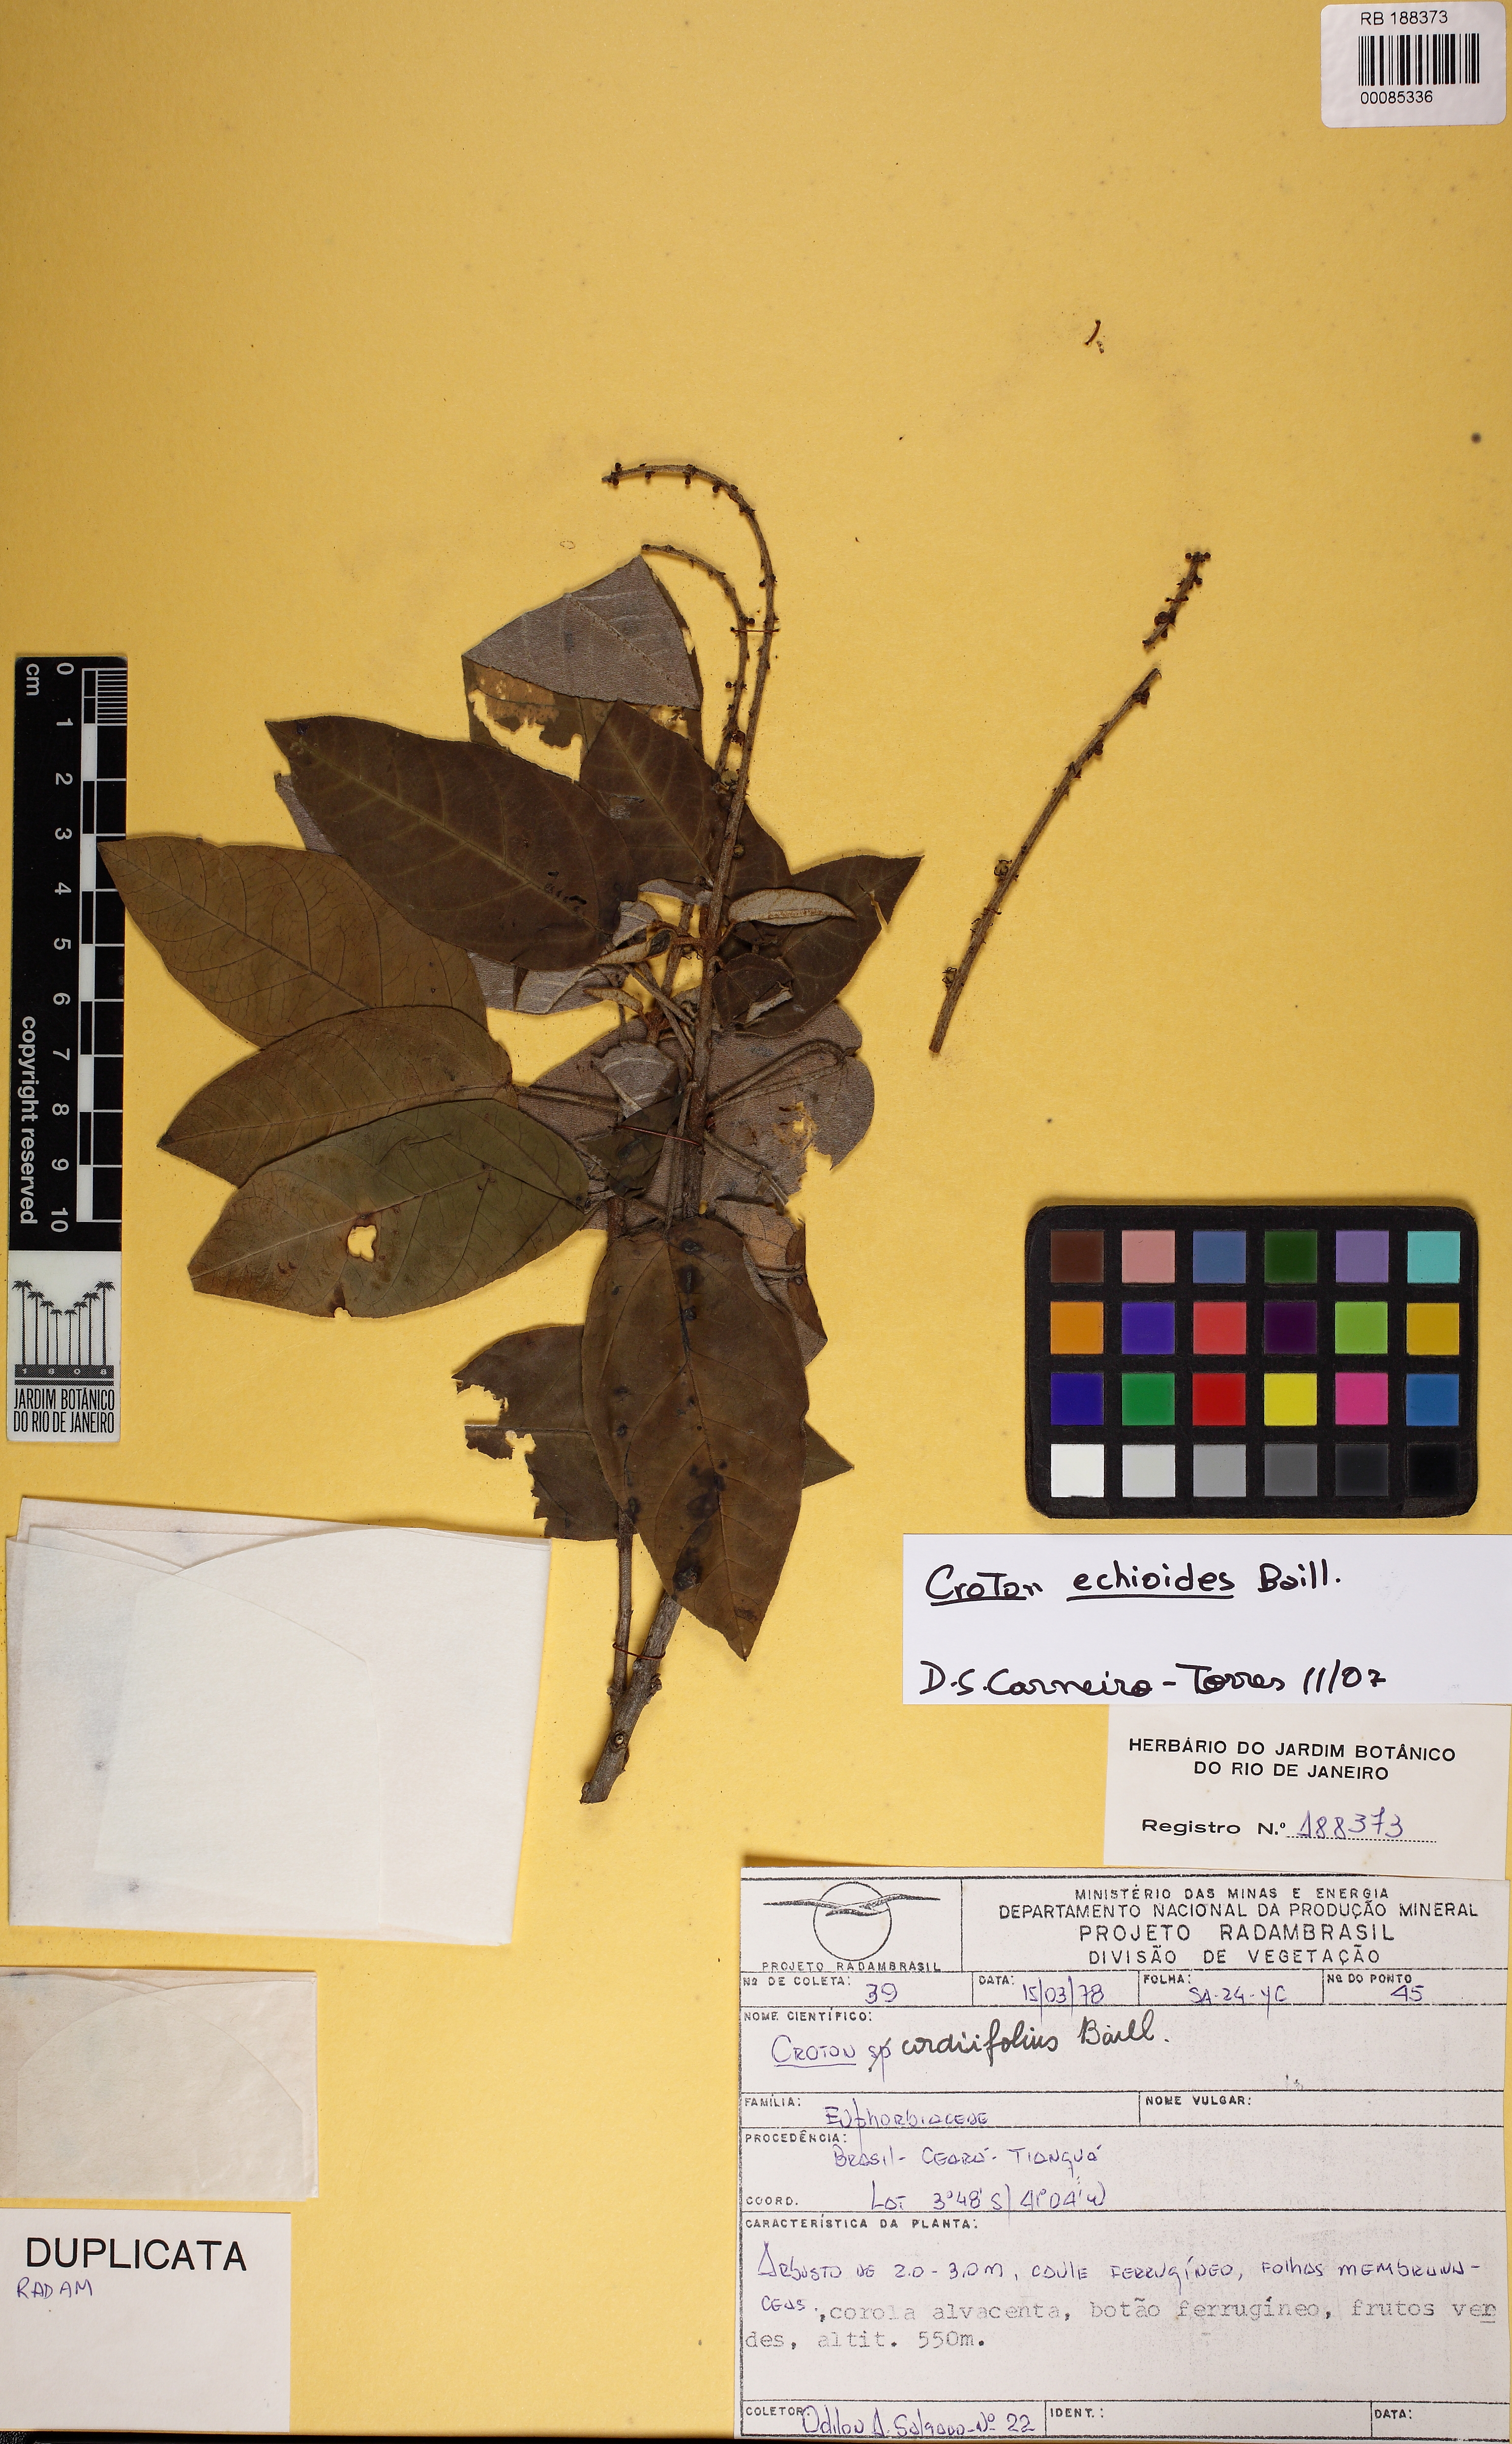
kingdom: Plantae
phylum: Tracheophyta
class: Magnoliopsida
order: Malpighiales
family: Euphorbiaceae
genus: Croton
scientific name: Croton echioides
